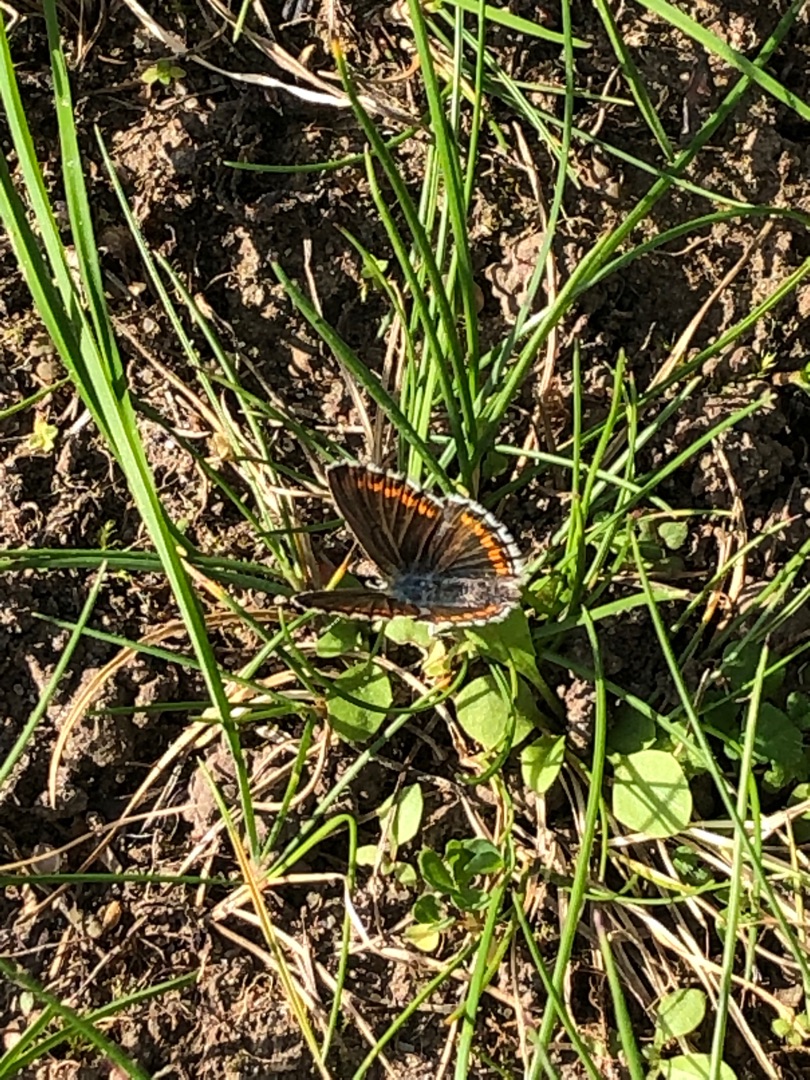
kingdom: Animalia
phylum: Arthropoda
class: Insecta
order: Lepidoptera
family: Lycaenidae
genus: Aricia
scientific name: Aricia agestis
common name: Rødplettet blåfugl
